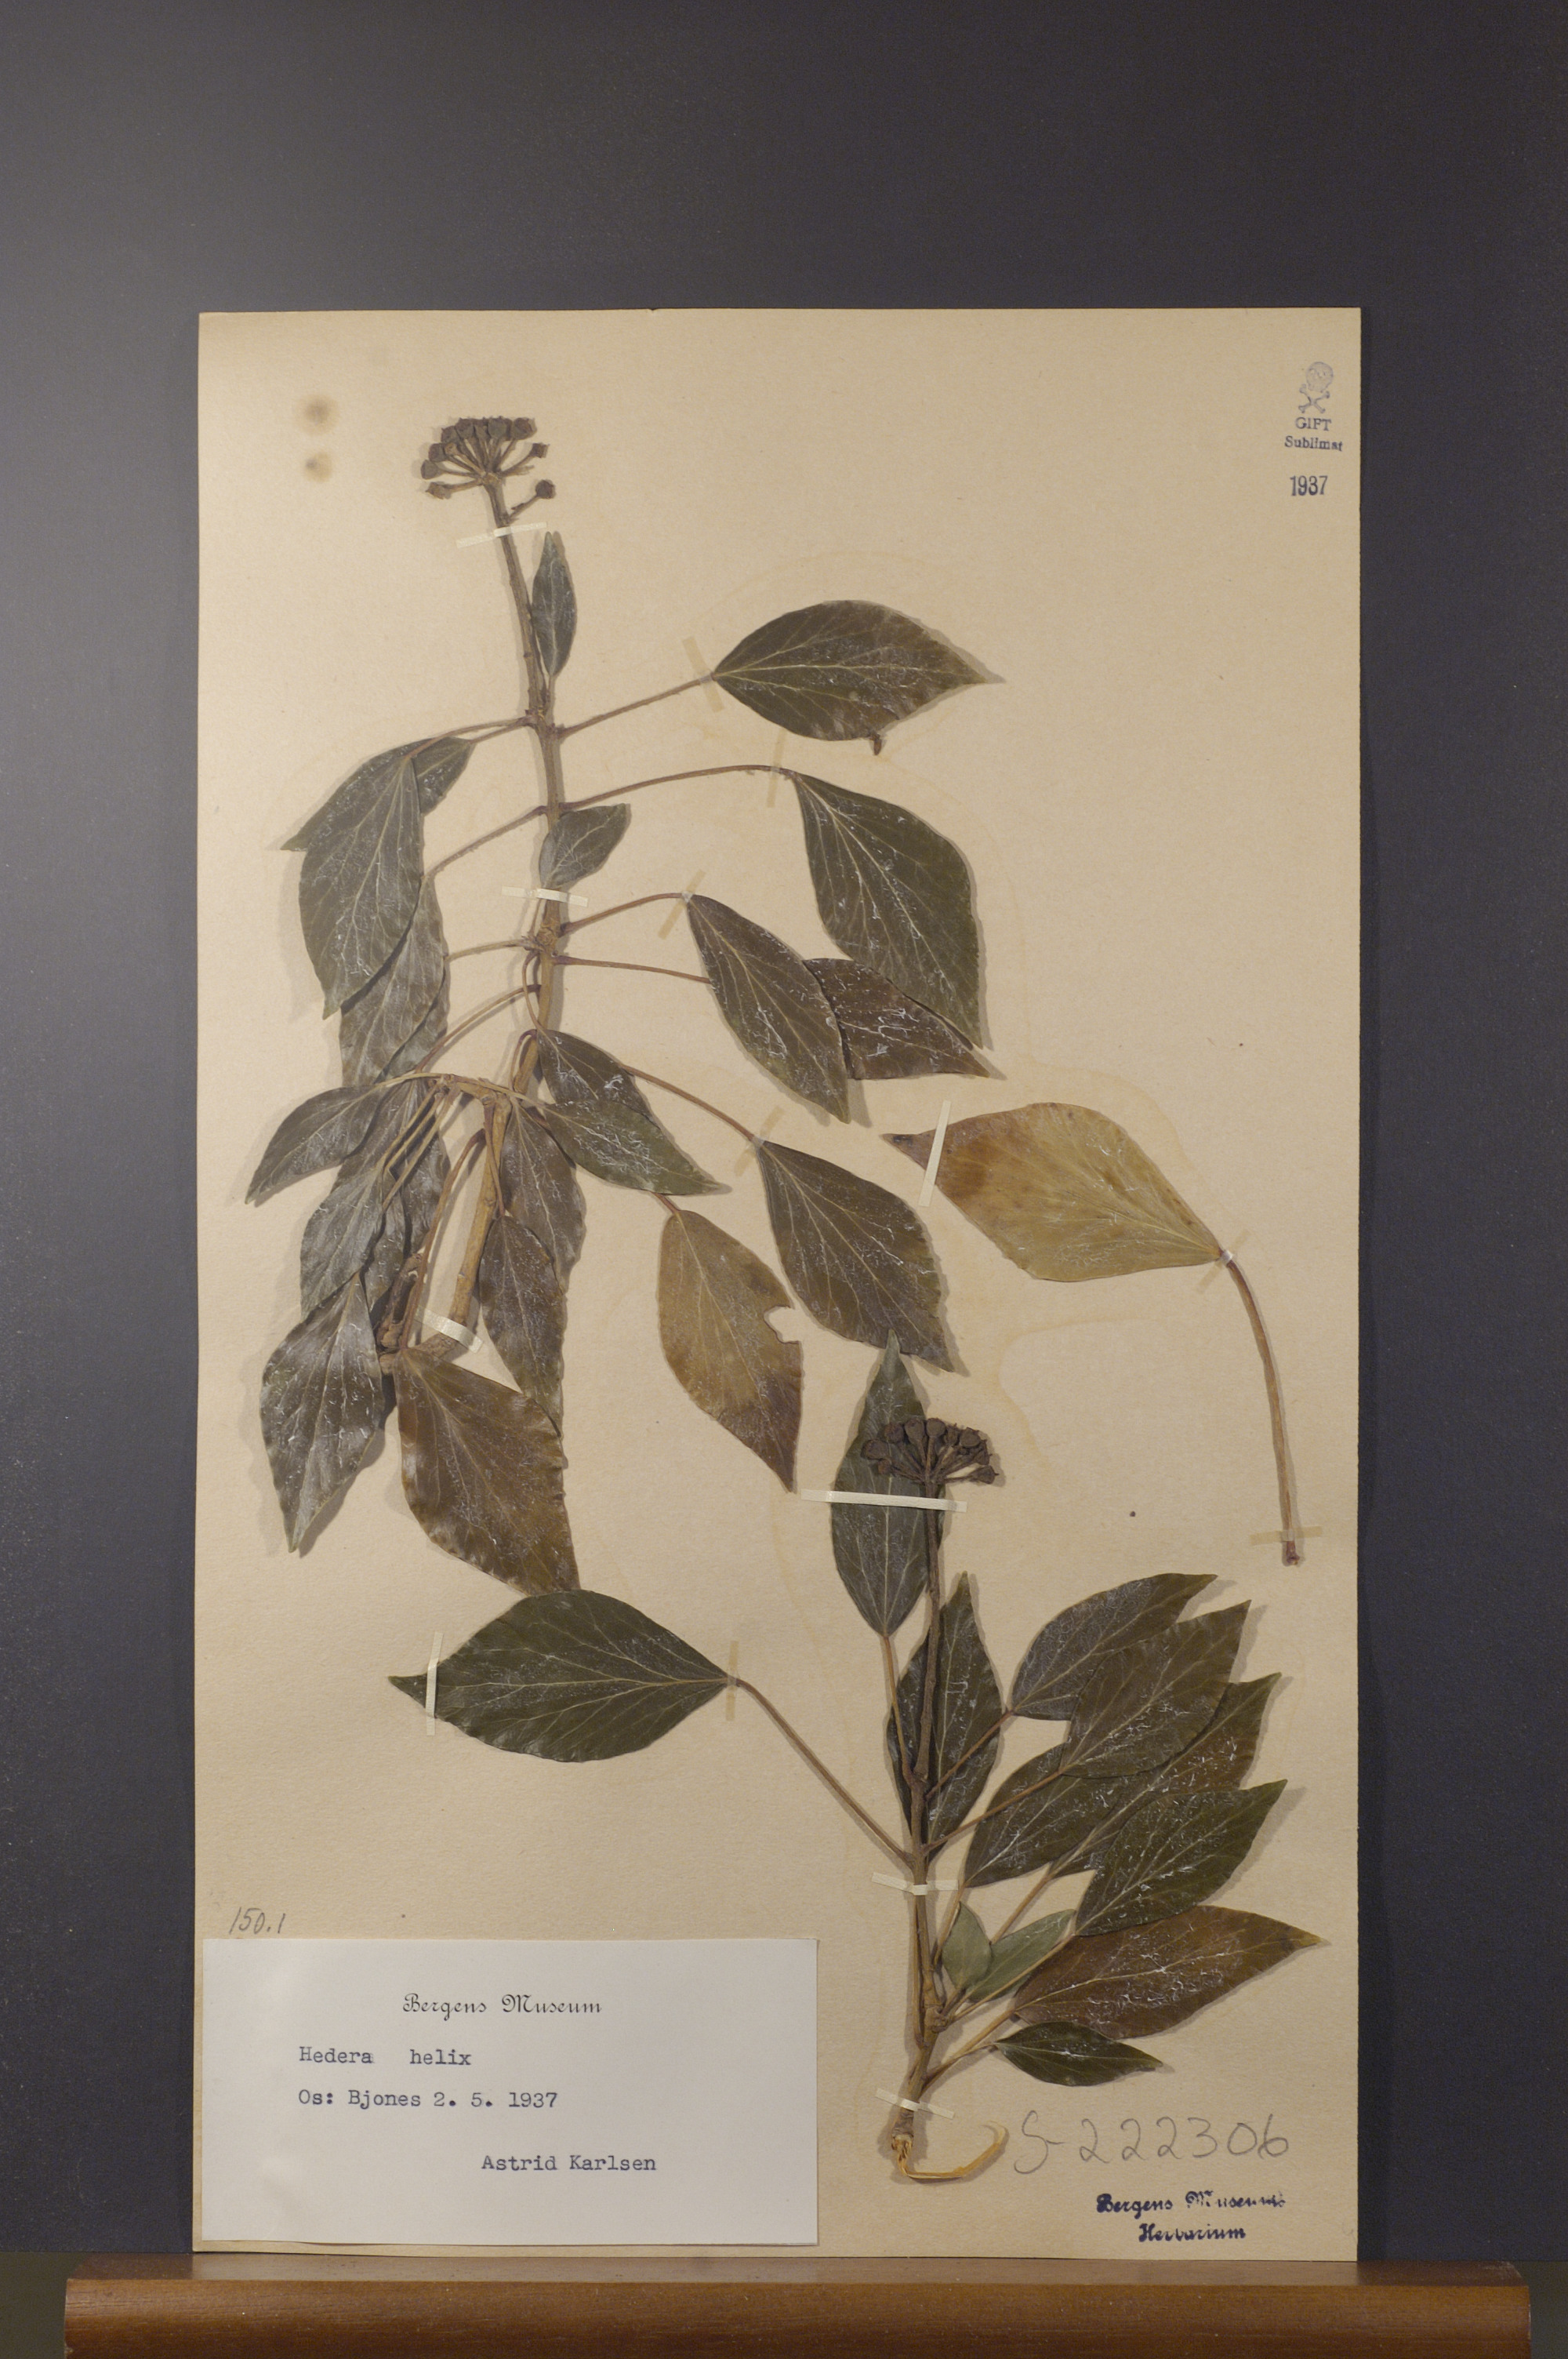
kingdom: Plantae
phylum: Tracheophyta
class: Magnoliopsida
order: Apiales
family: Araliaceae
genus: Hedera
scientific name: Hedera helix
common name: Ivy
